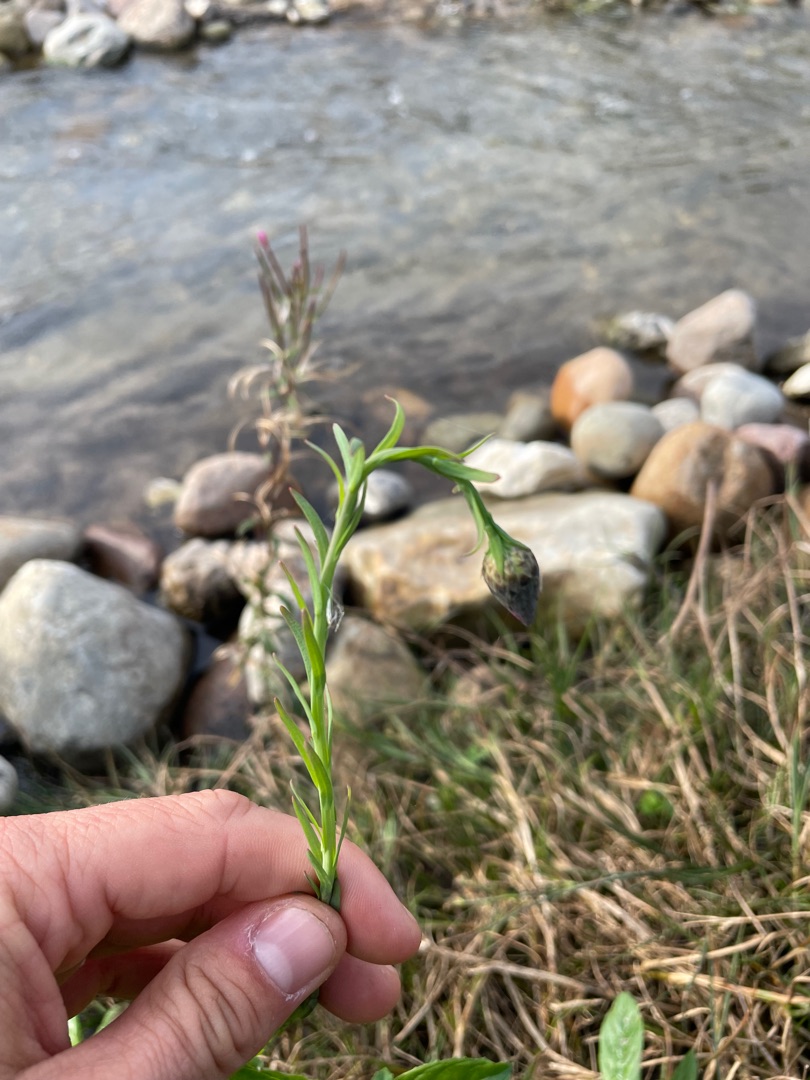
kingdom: Plantae
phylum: Tracheophyta
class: Magnoliopsida
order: Asterales
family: Asteraceae
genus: Centaurea
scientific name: Centaurea jacea
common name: Almindelig knopurt
